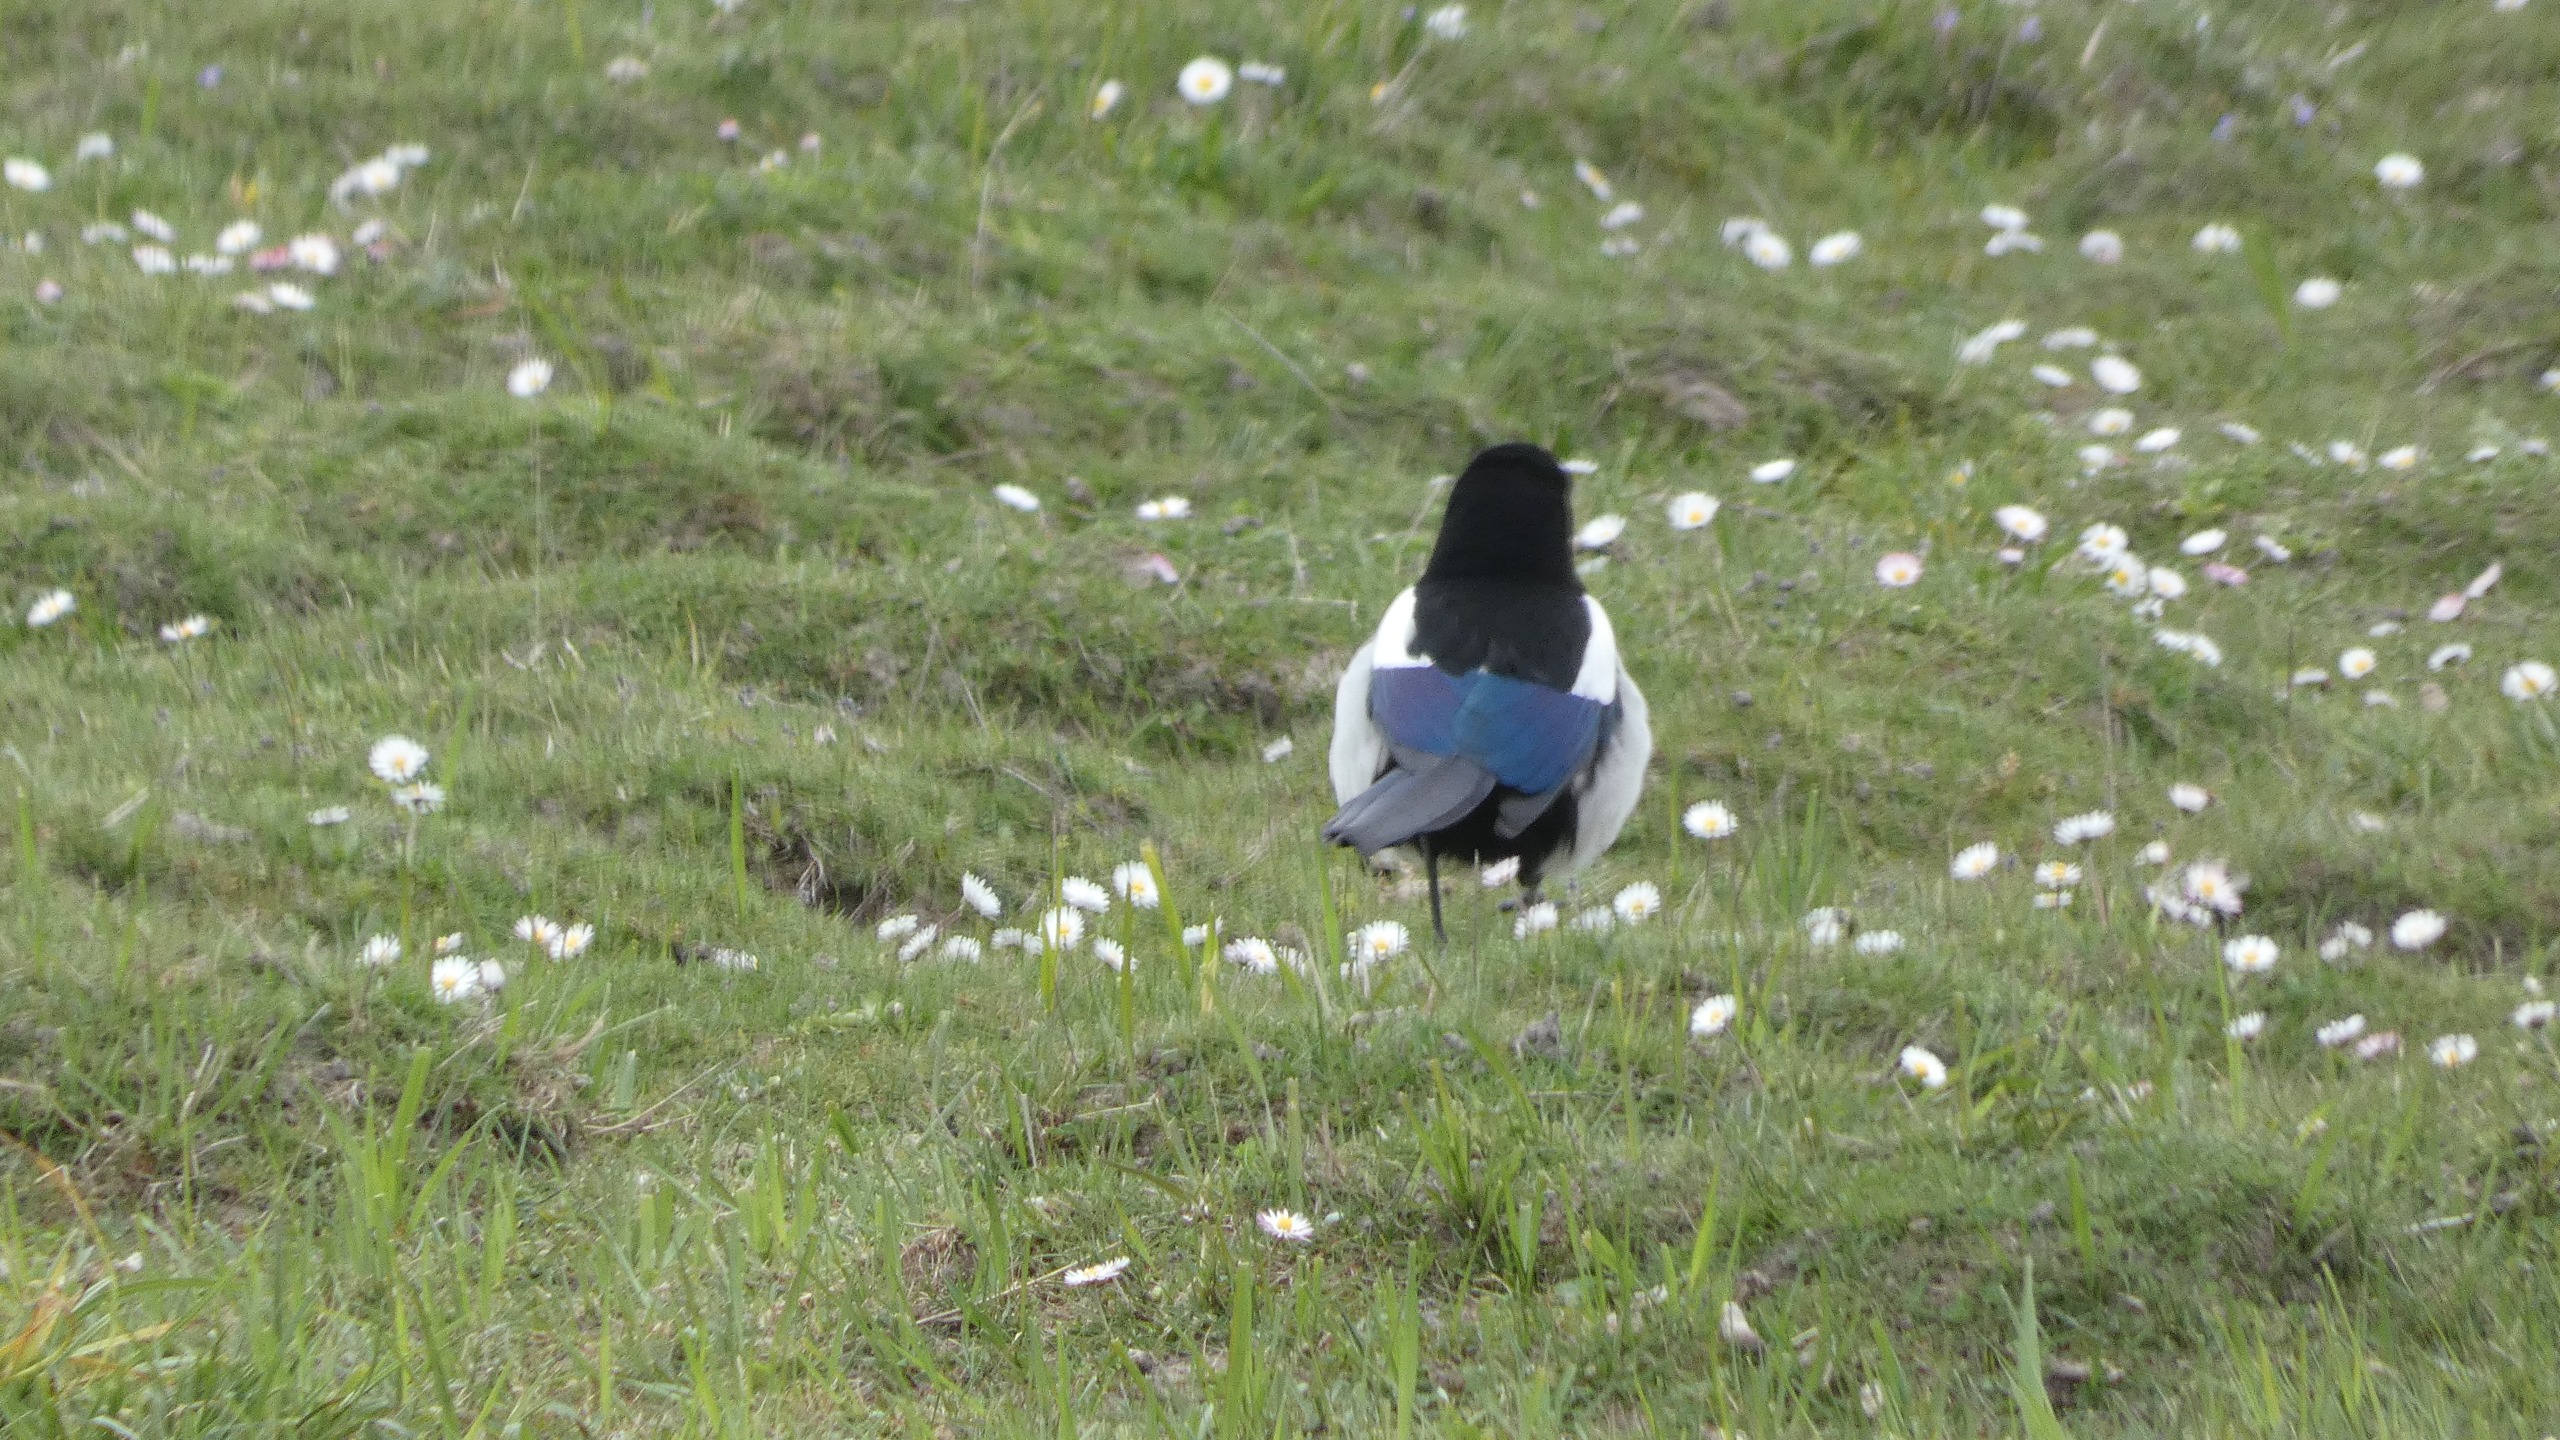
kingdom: Animalia
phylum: Chordata
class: Aves
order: Passeriformes
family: Corvidae
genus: Pica
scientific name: Pica pica
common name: Husskade
